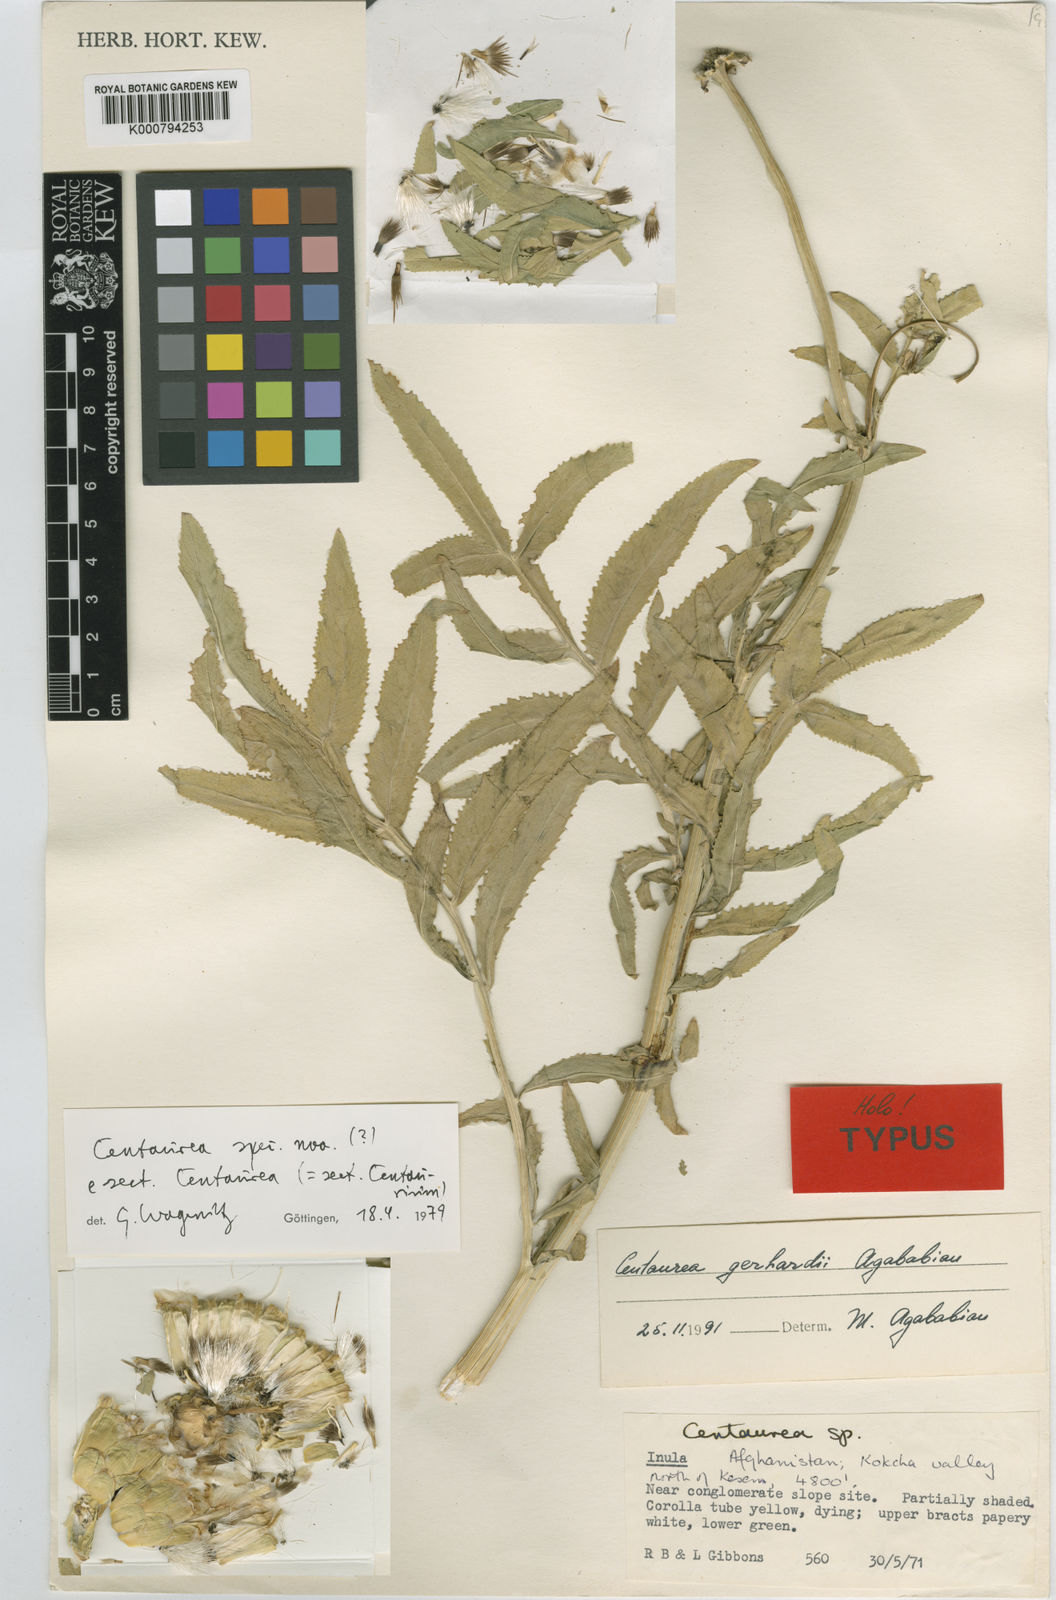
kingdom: Plantae
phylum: Tracheophyta
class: Magnoliopsida
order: Asterales
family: Asteraceae
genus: Centaurea
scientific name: Centaurea gerhardii
